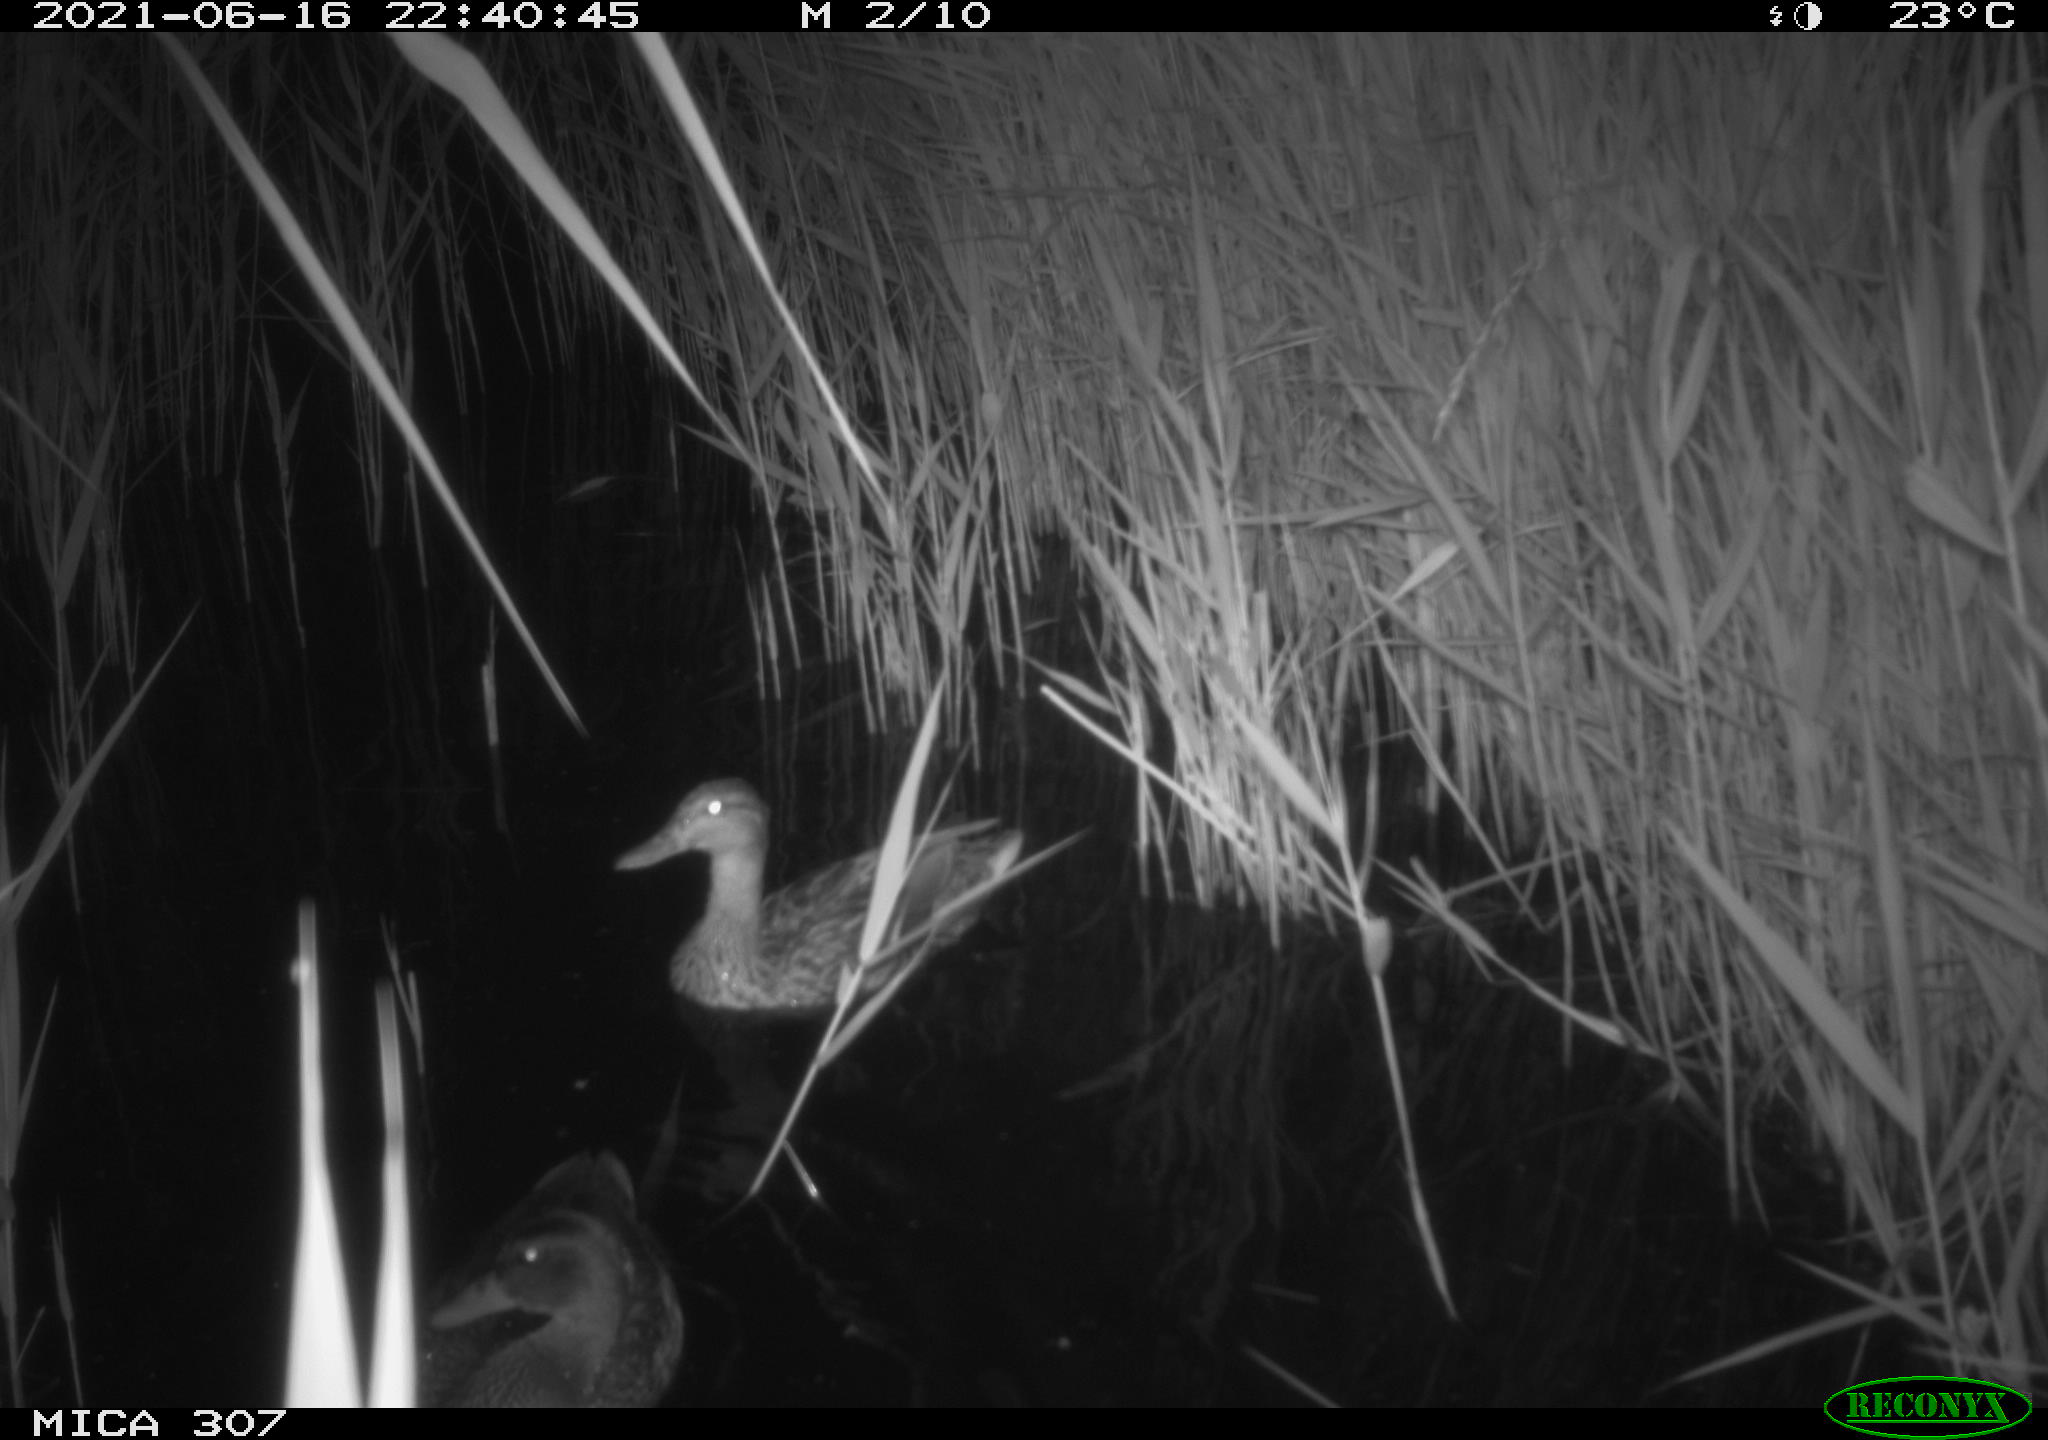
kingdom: Animalia
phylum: Chordata
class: Aves
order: Anseriformes
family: Anatidae
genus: Mareca
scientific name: Mareca strepera
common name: Gadwall
